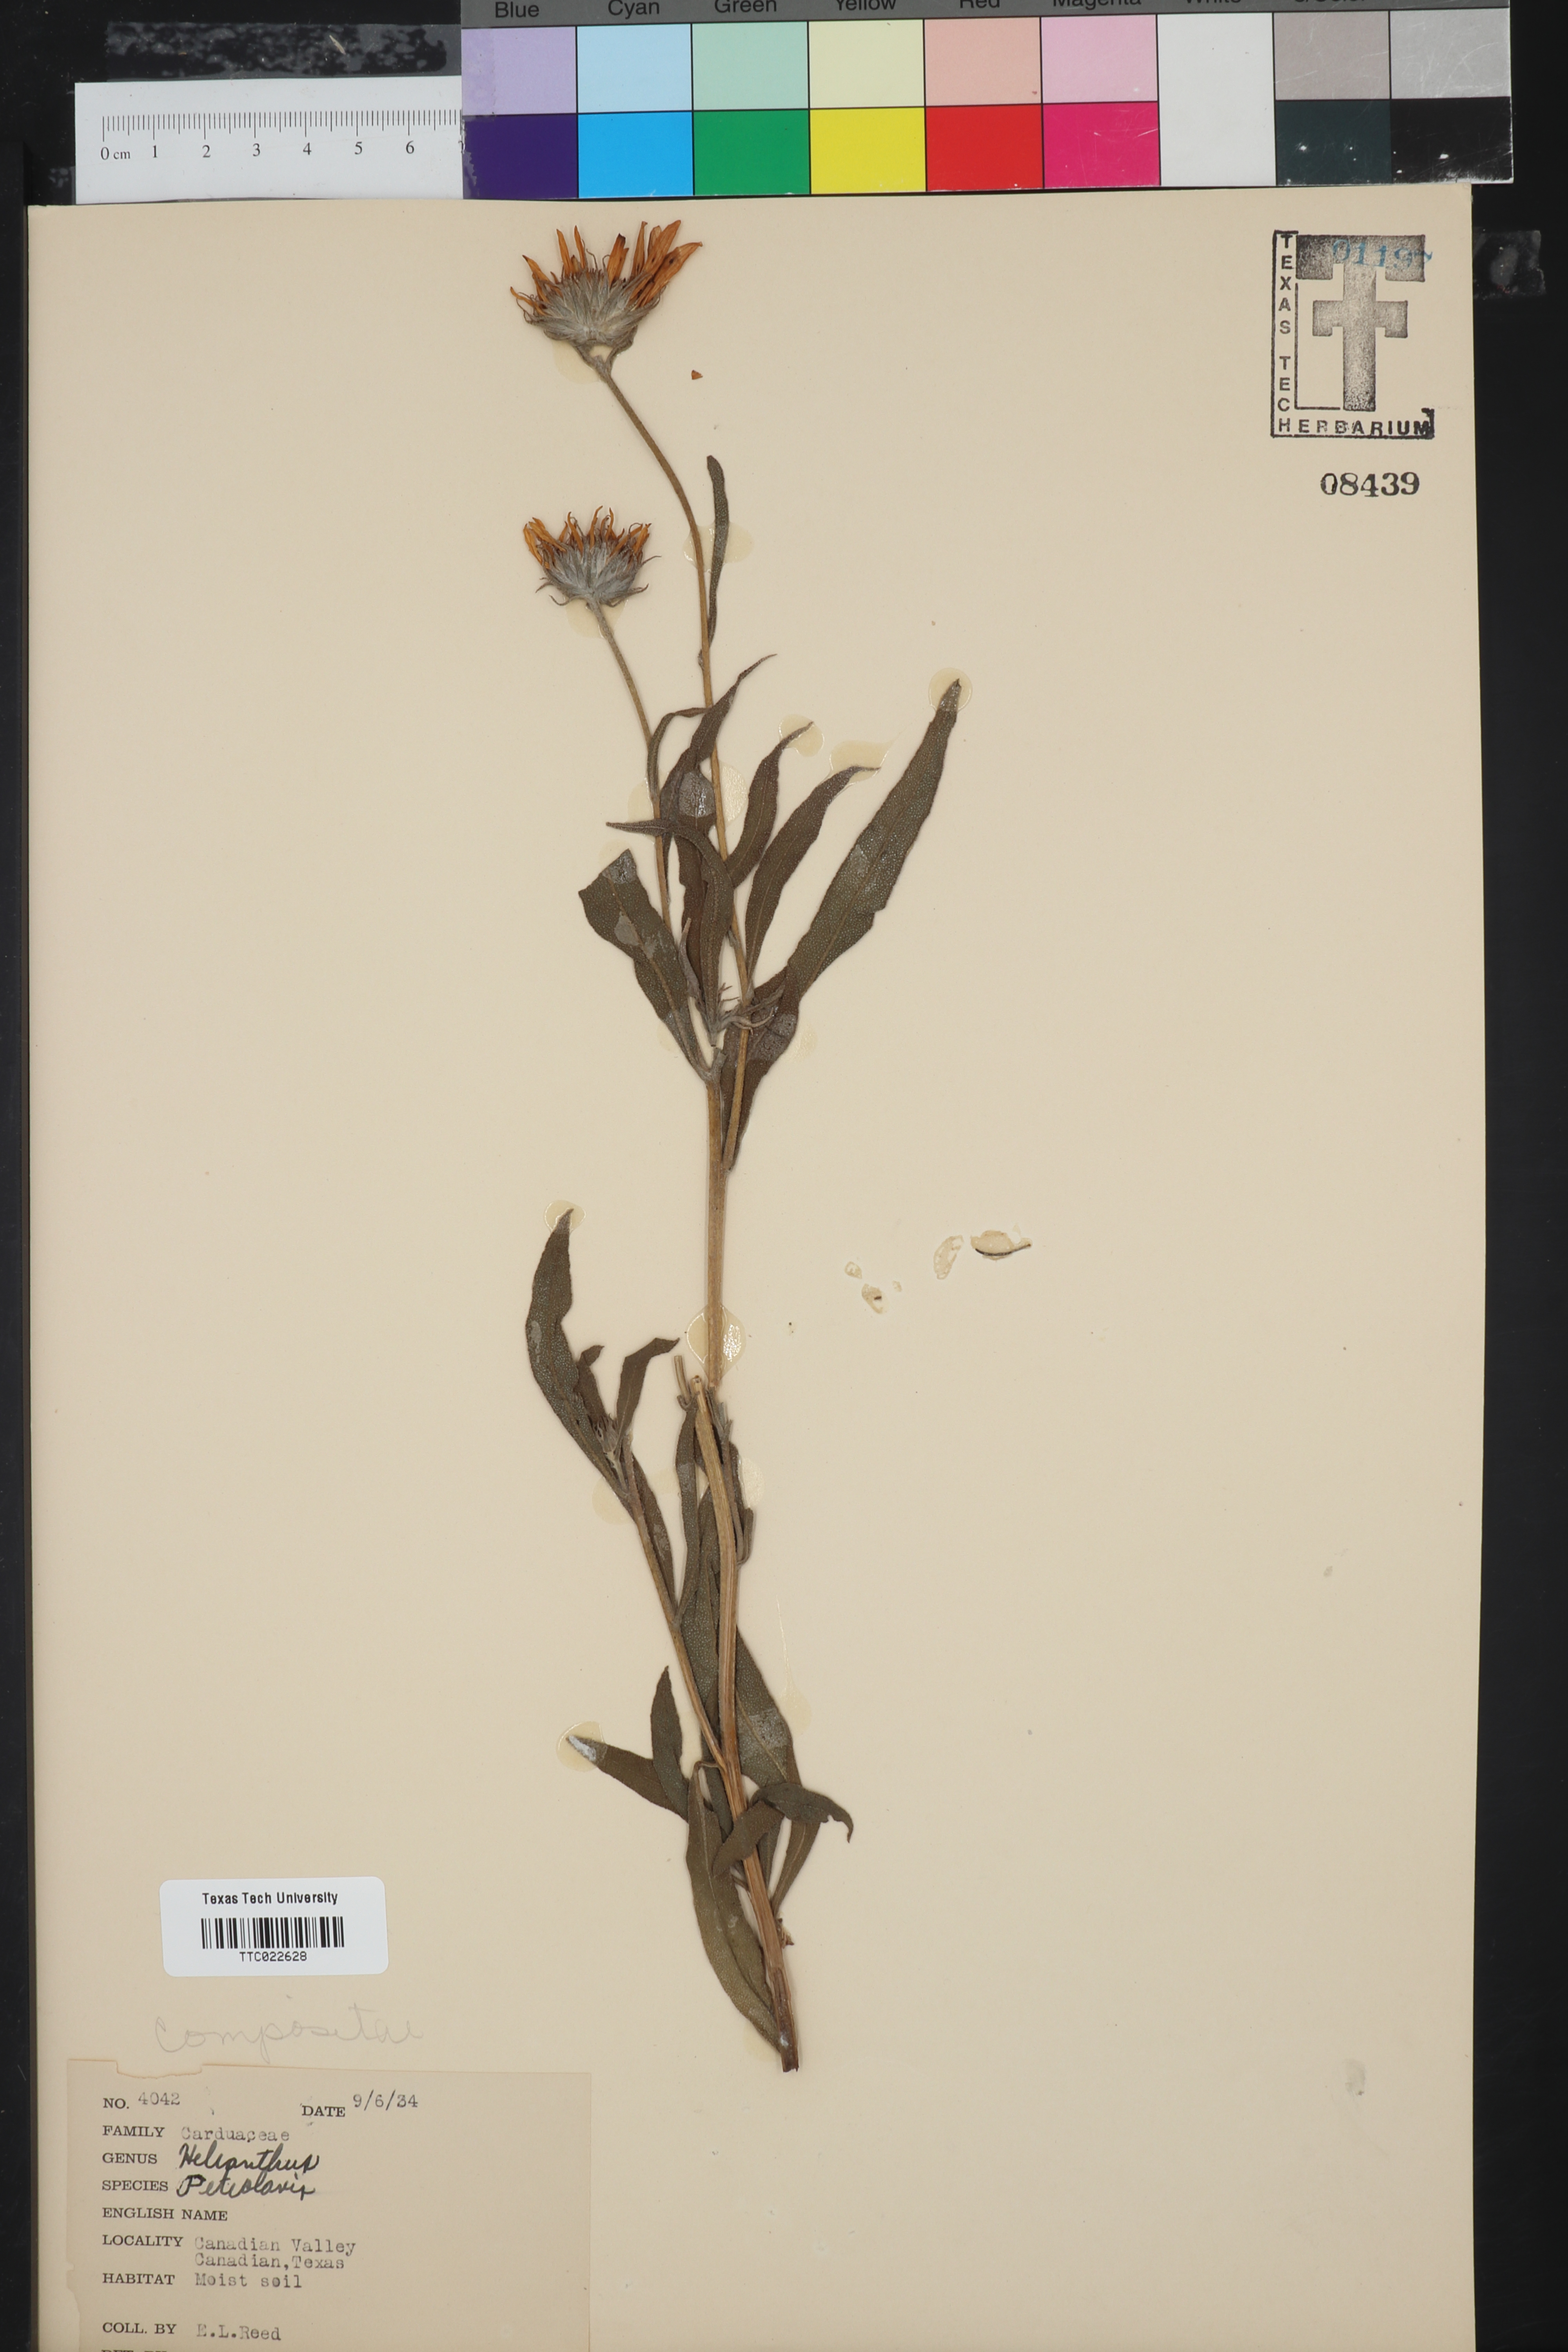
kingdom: Plantae
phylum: Tracheophyta
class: Magnoliopsida
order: Asterales
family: Asteraceae
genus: Helianthus
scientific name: Helianthus petiolaris
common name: Lesser sunflower
